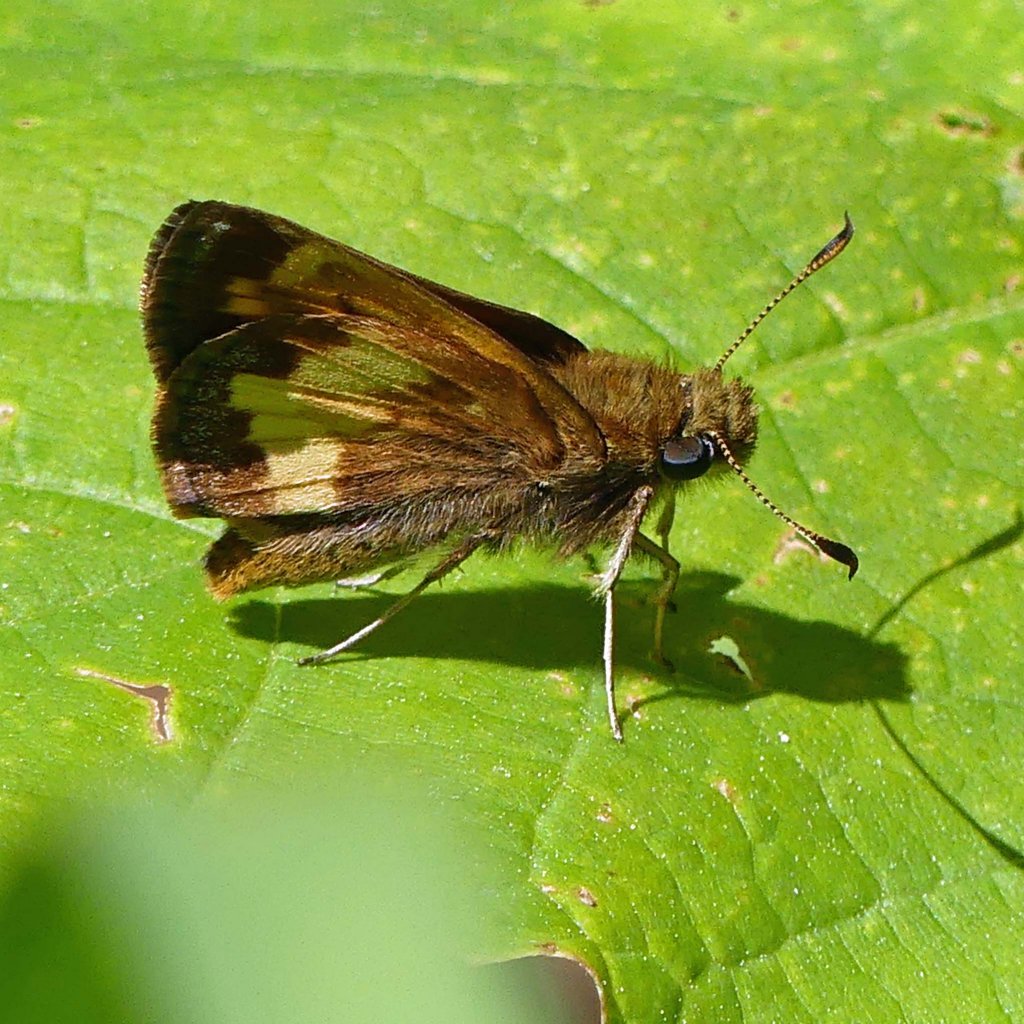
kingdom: Animalia
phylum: Arthropoda
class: Insecta
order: Lepidoptera
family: Hesperiidae
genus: Lon
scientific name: Lon hobomok
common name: Hobomok Skipper
